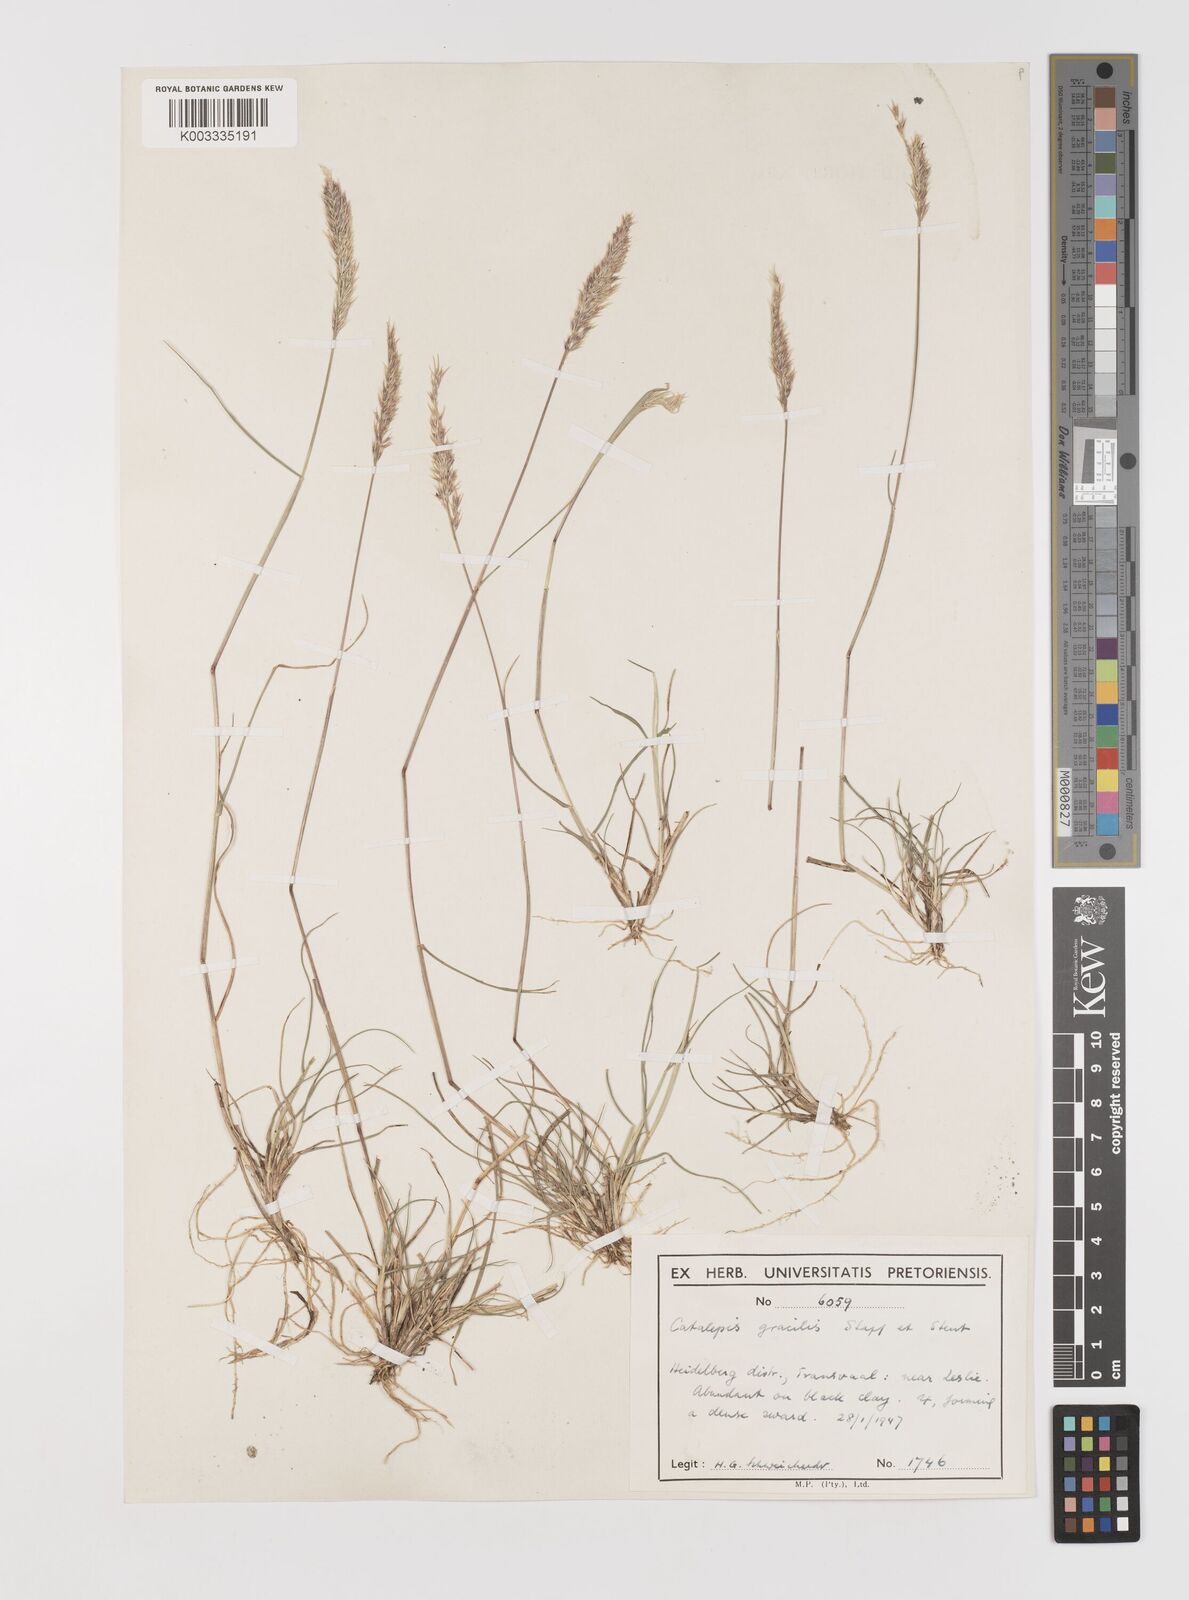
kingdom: Plantae
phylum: Tracheophyta
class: Liliopsida
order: Poales
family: Poaceae
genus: Catalepis
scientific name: Catalepis gracilis
